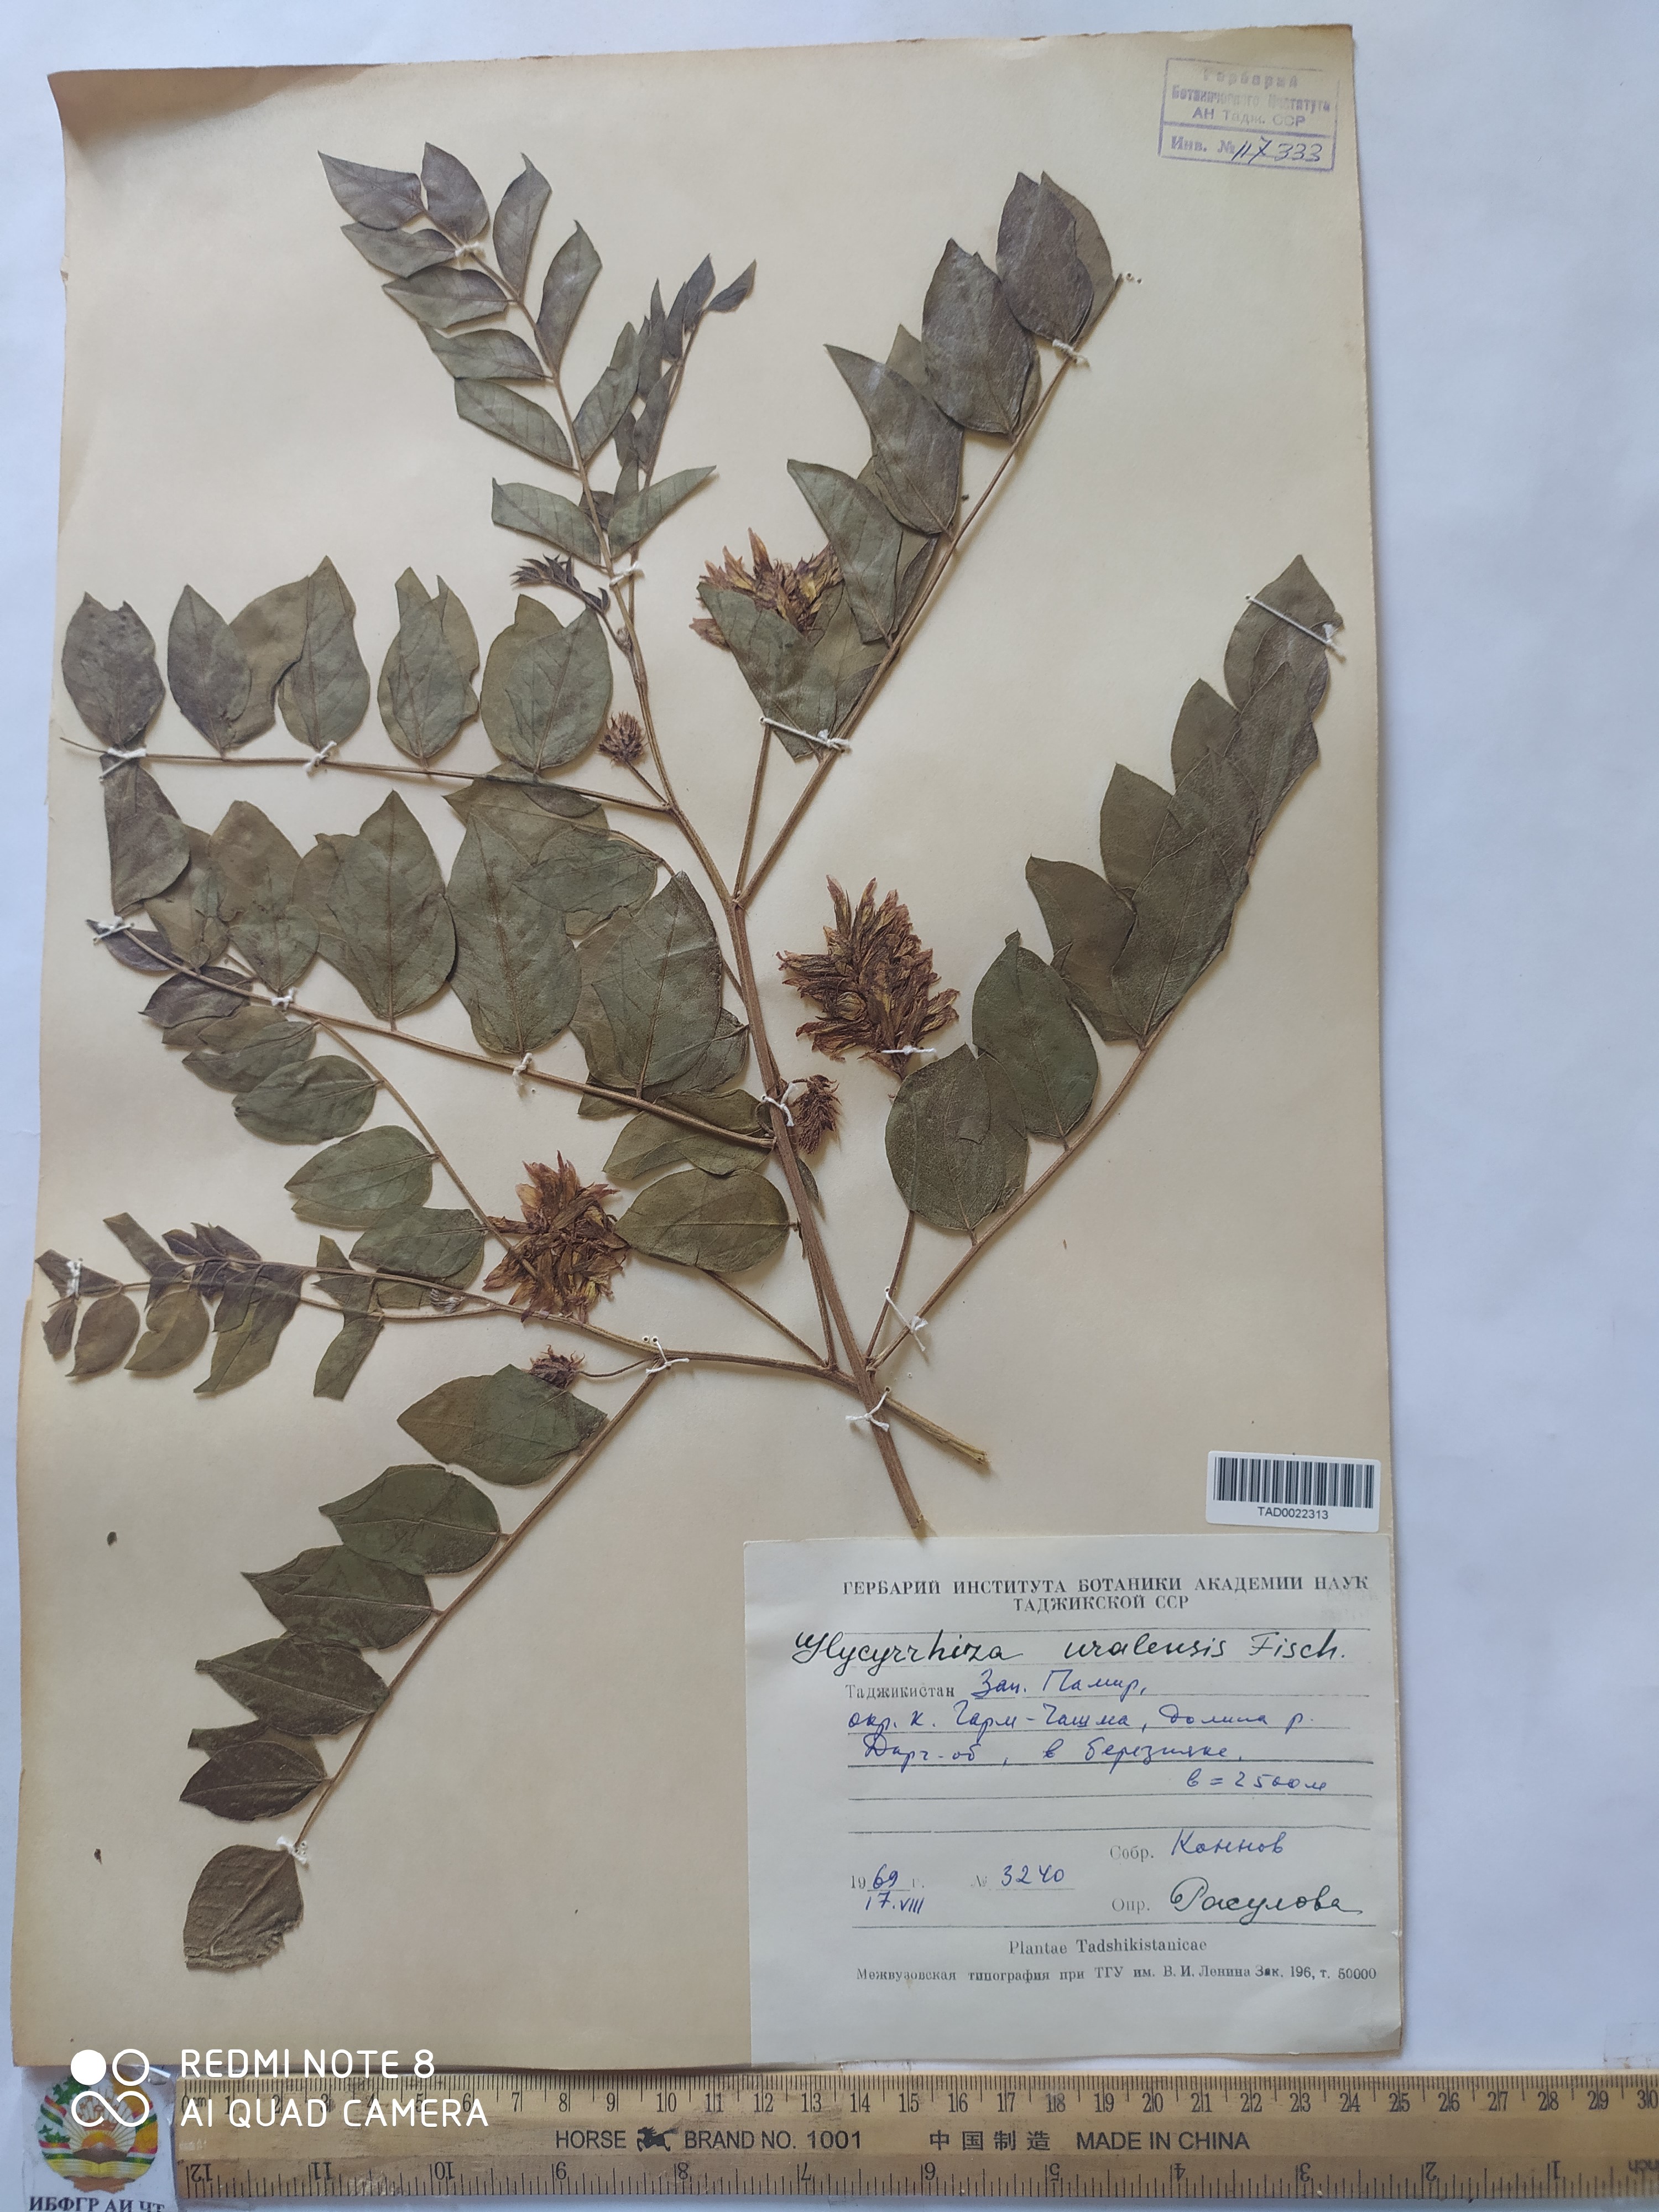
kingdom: Plantae
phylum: Tracheophyta
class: Magnoliopsida
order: Fabales
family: Fabaceae
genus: Glycyrrhiza
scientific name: Glycyrrhiza uralensis
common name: Chinese licorice
